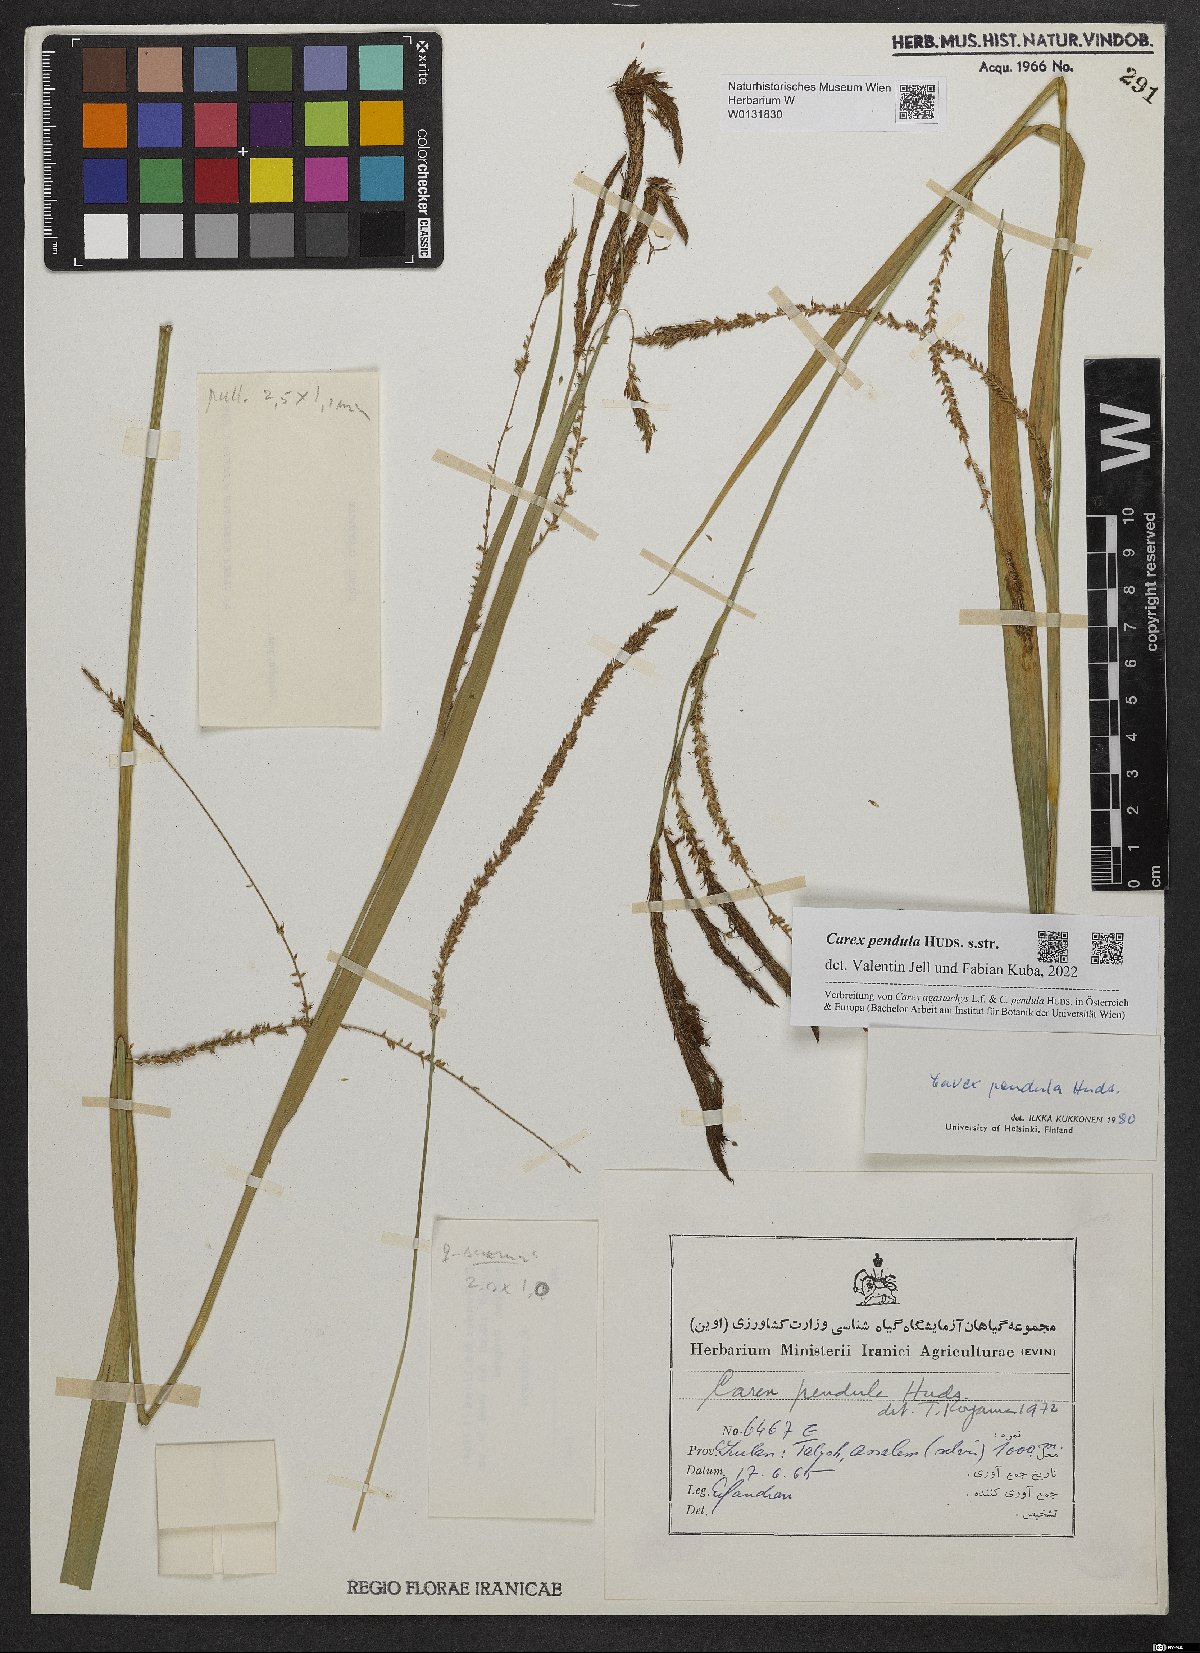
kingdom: Plantae
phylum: Tracheophyta
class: Liliopsida
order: Poales
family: Cyperaceae
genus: Carex
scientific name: Carex pendula
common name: Pendulous sedge
